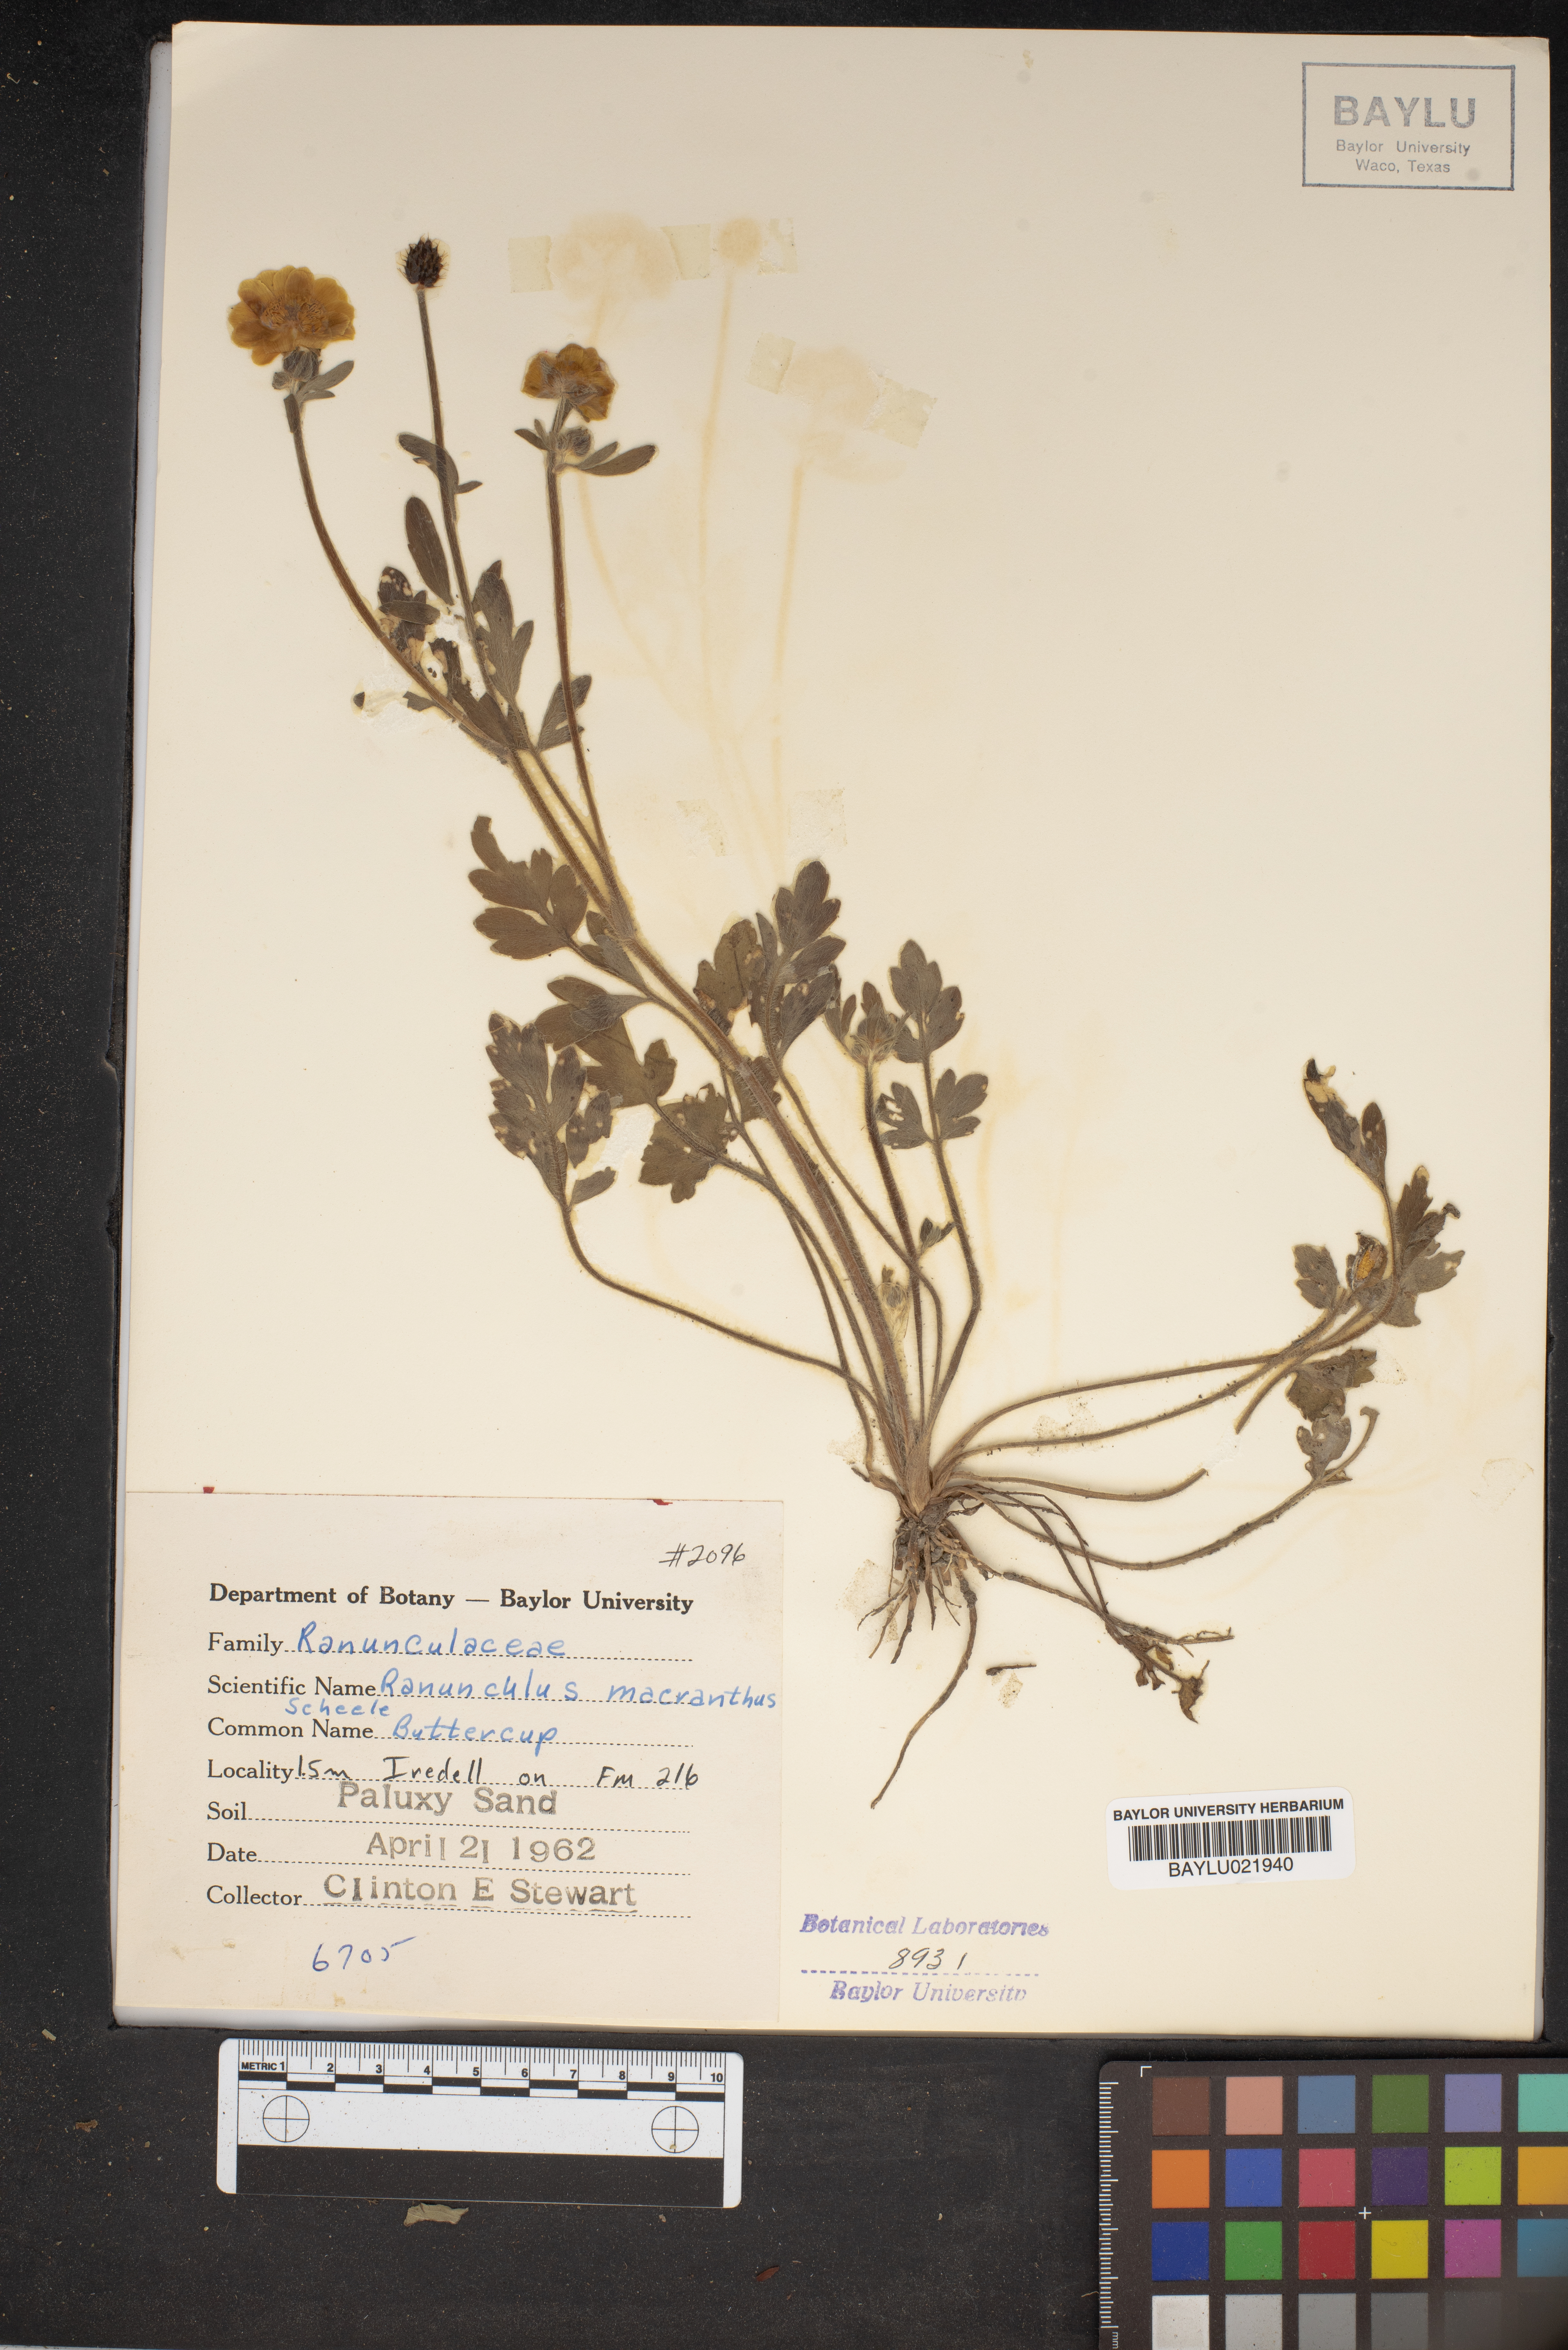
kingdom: Plantae
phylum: Tracheophyta
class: Magnoliopsida
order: Ranunculales
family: Ranunculaceae
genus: Ranunculus
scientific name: Ranunculus macranthus
